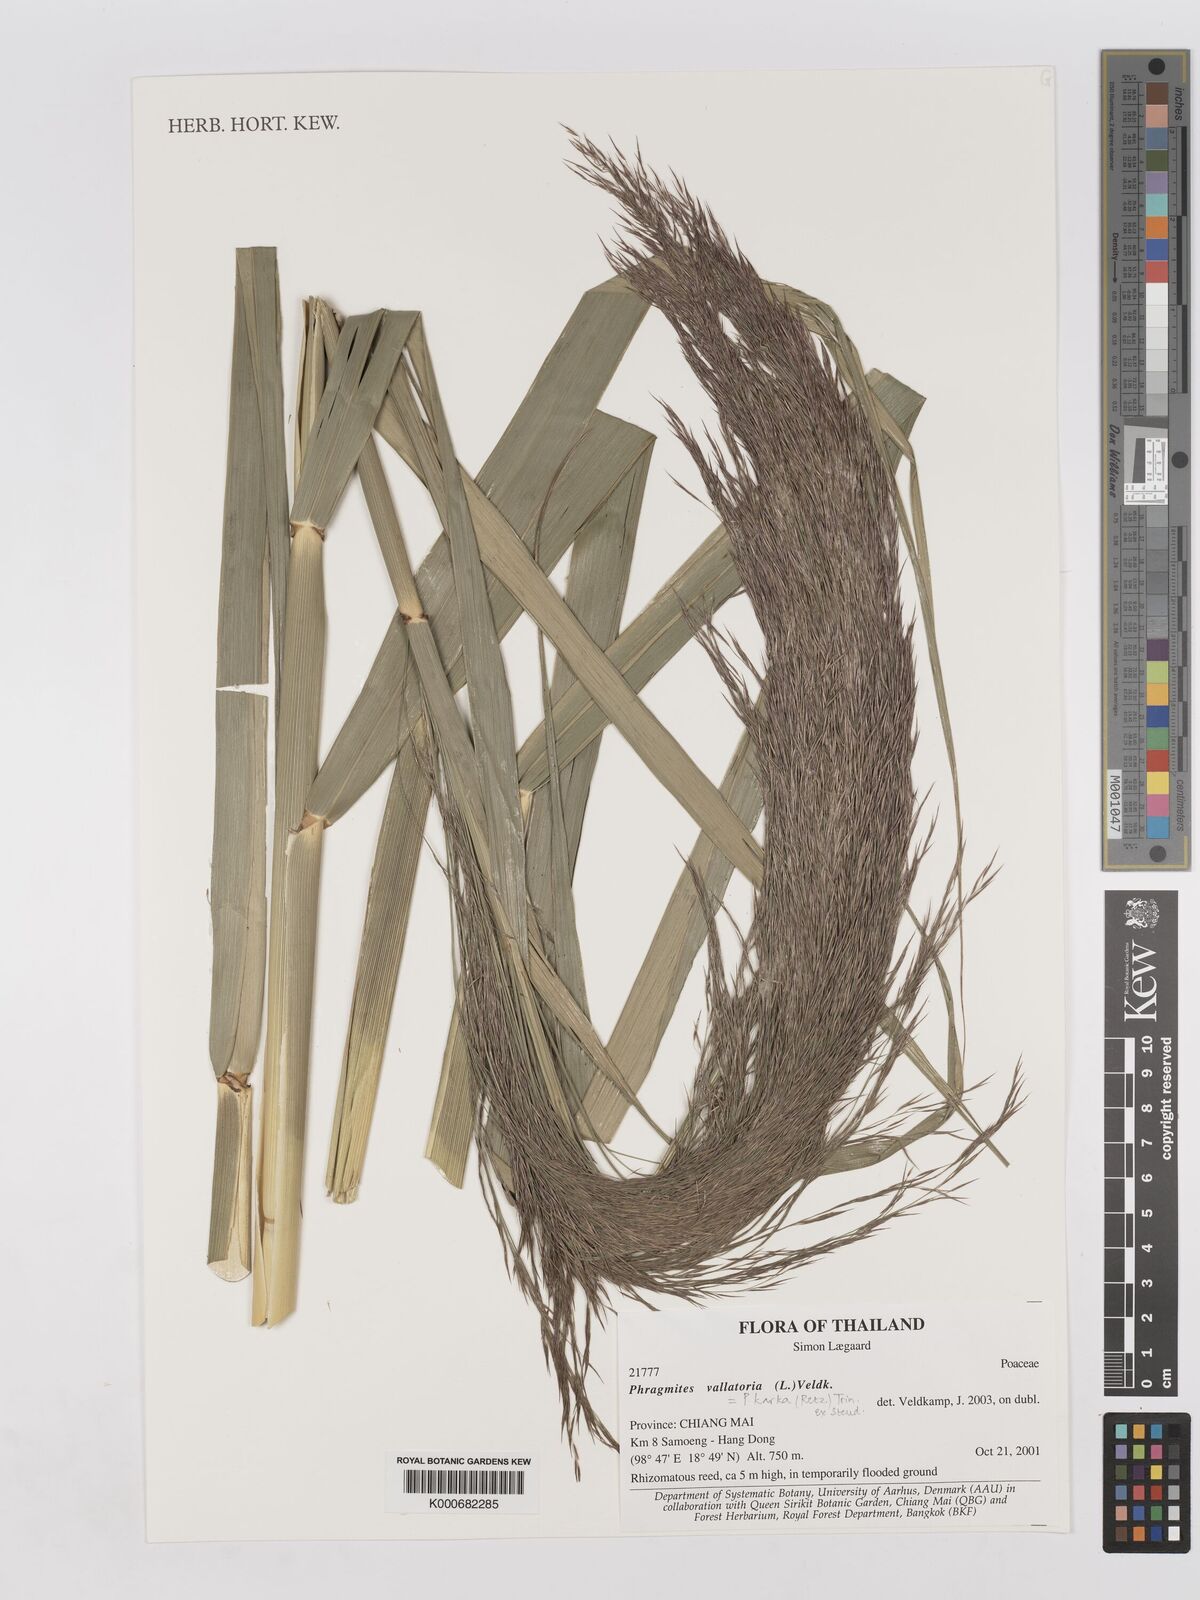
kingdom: Plantae
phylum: Tracheophyta
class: Liliopsida
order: Poales
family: Poaceae
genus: Phragmites
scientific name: Phragmites karka
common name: Tropical reed
